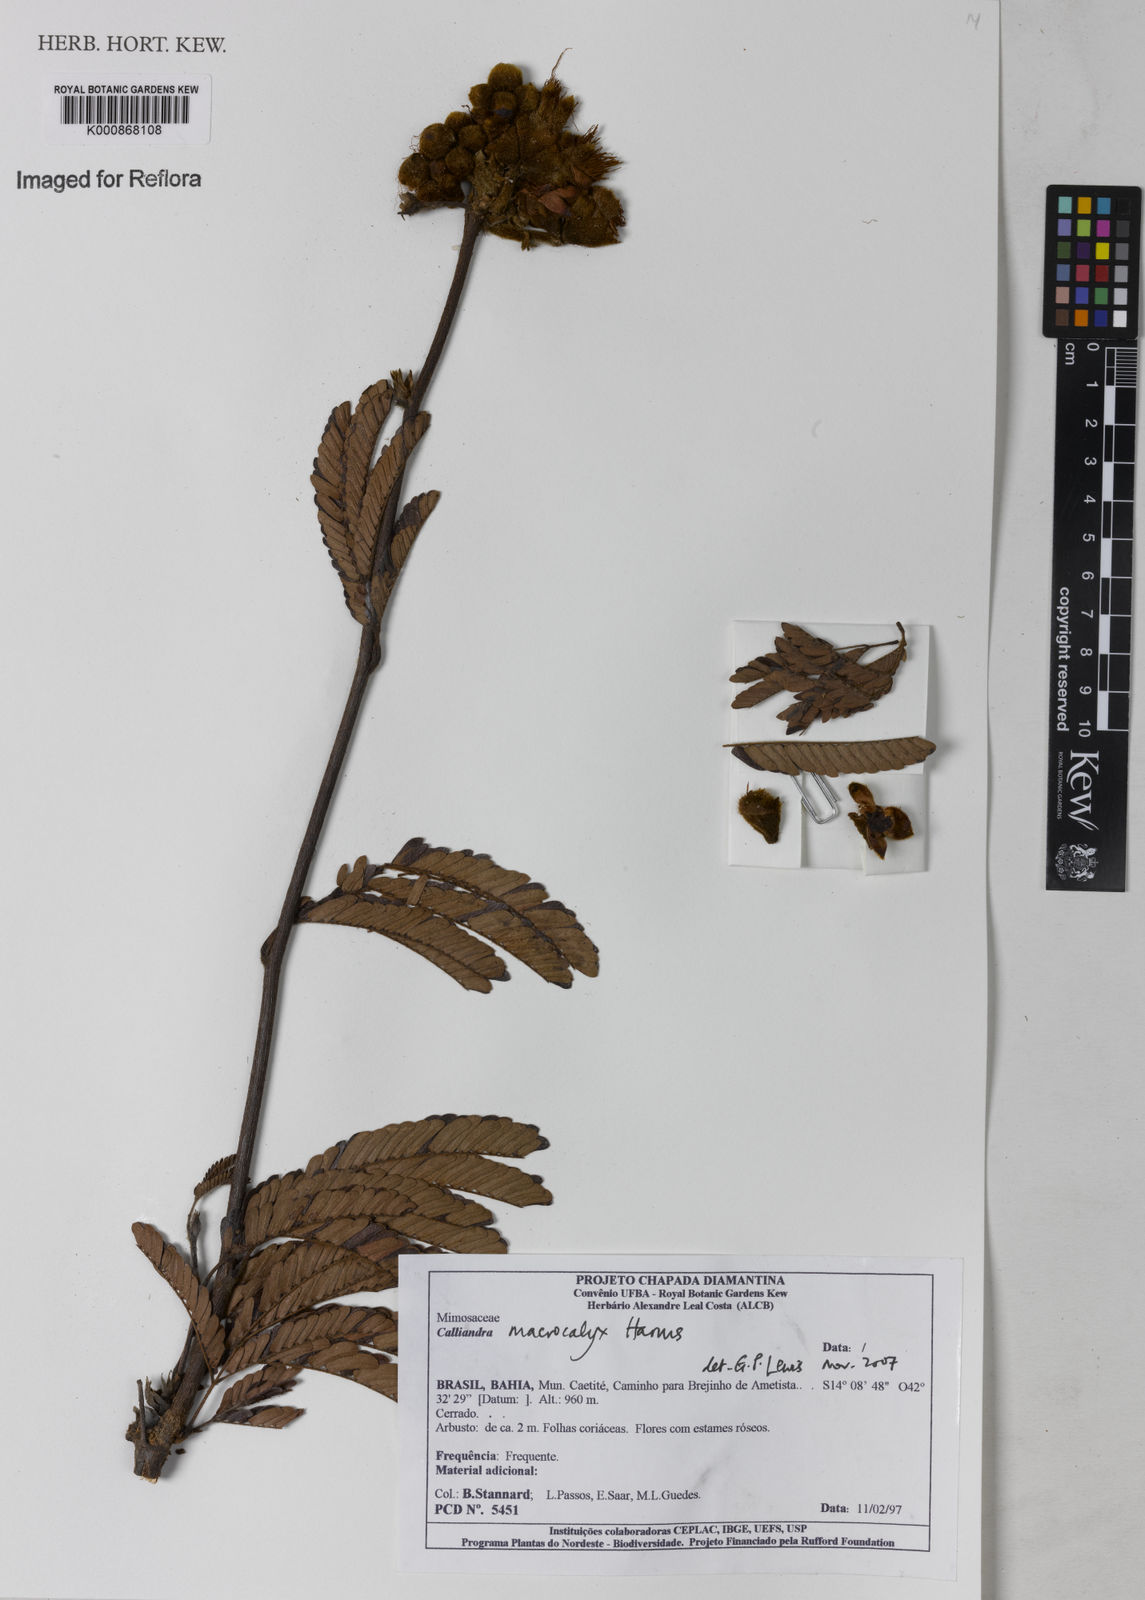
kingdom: Plantae
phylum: Tracheophyta
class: Magnoliopsida
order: Fabales
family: Fabaceae
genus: Calliandra
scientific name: Calliandra macrocalyx
